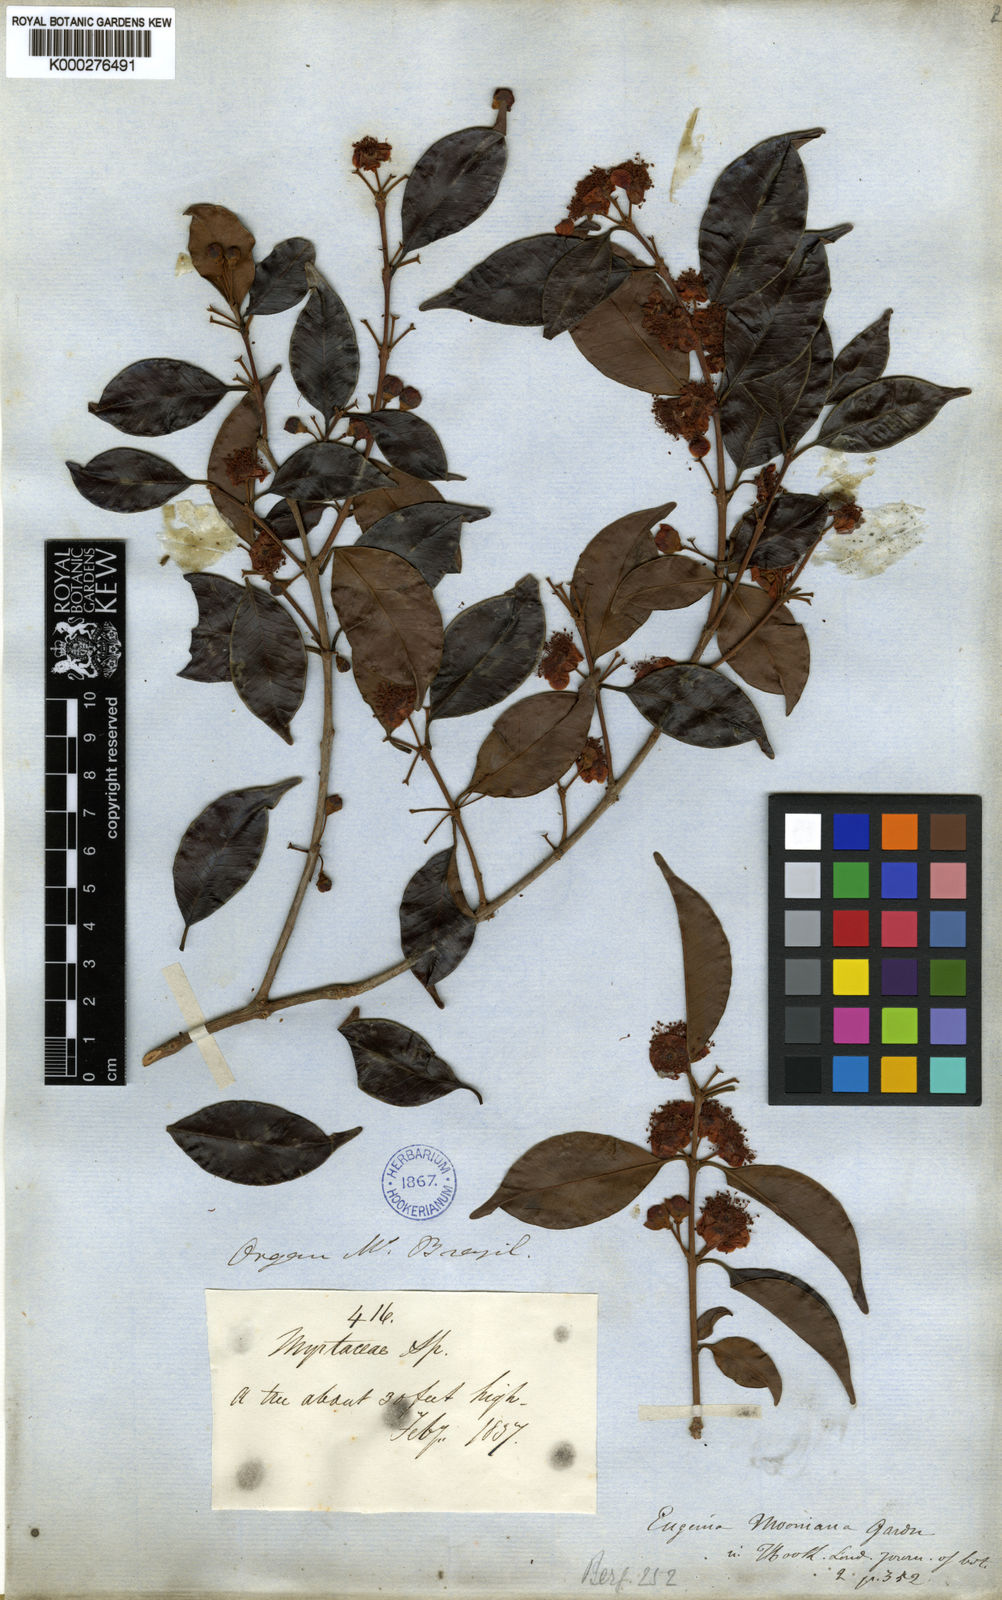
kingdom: Plantae
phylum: Tracheophyta
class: Magnoliopsida
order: Myrtales
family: Myrtaceae
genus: Eugenia
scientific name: Eugenia subundulata
